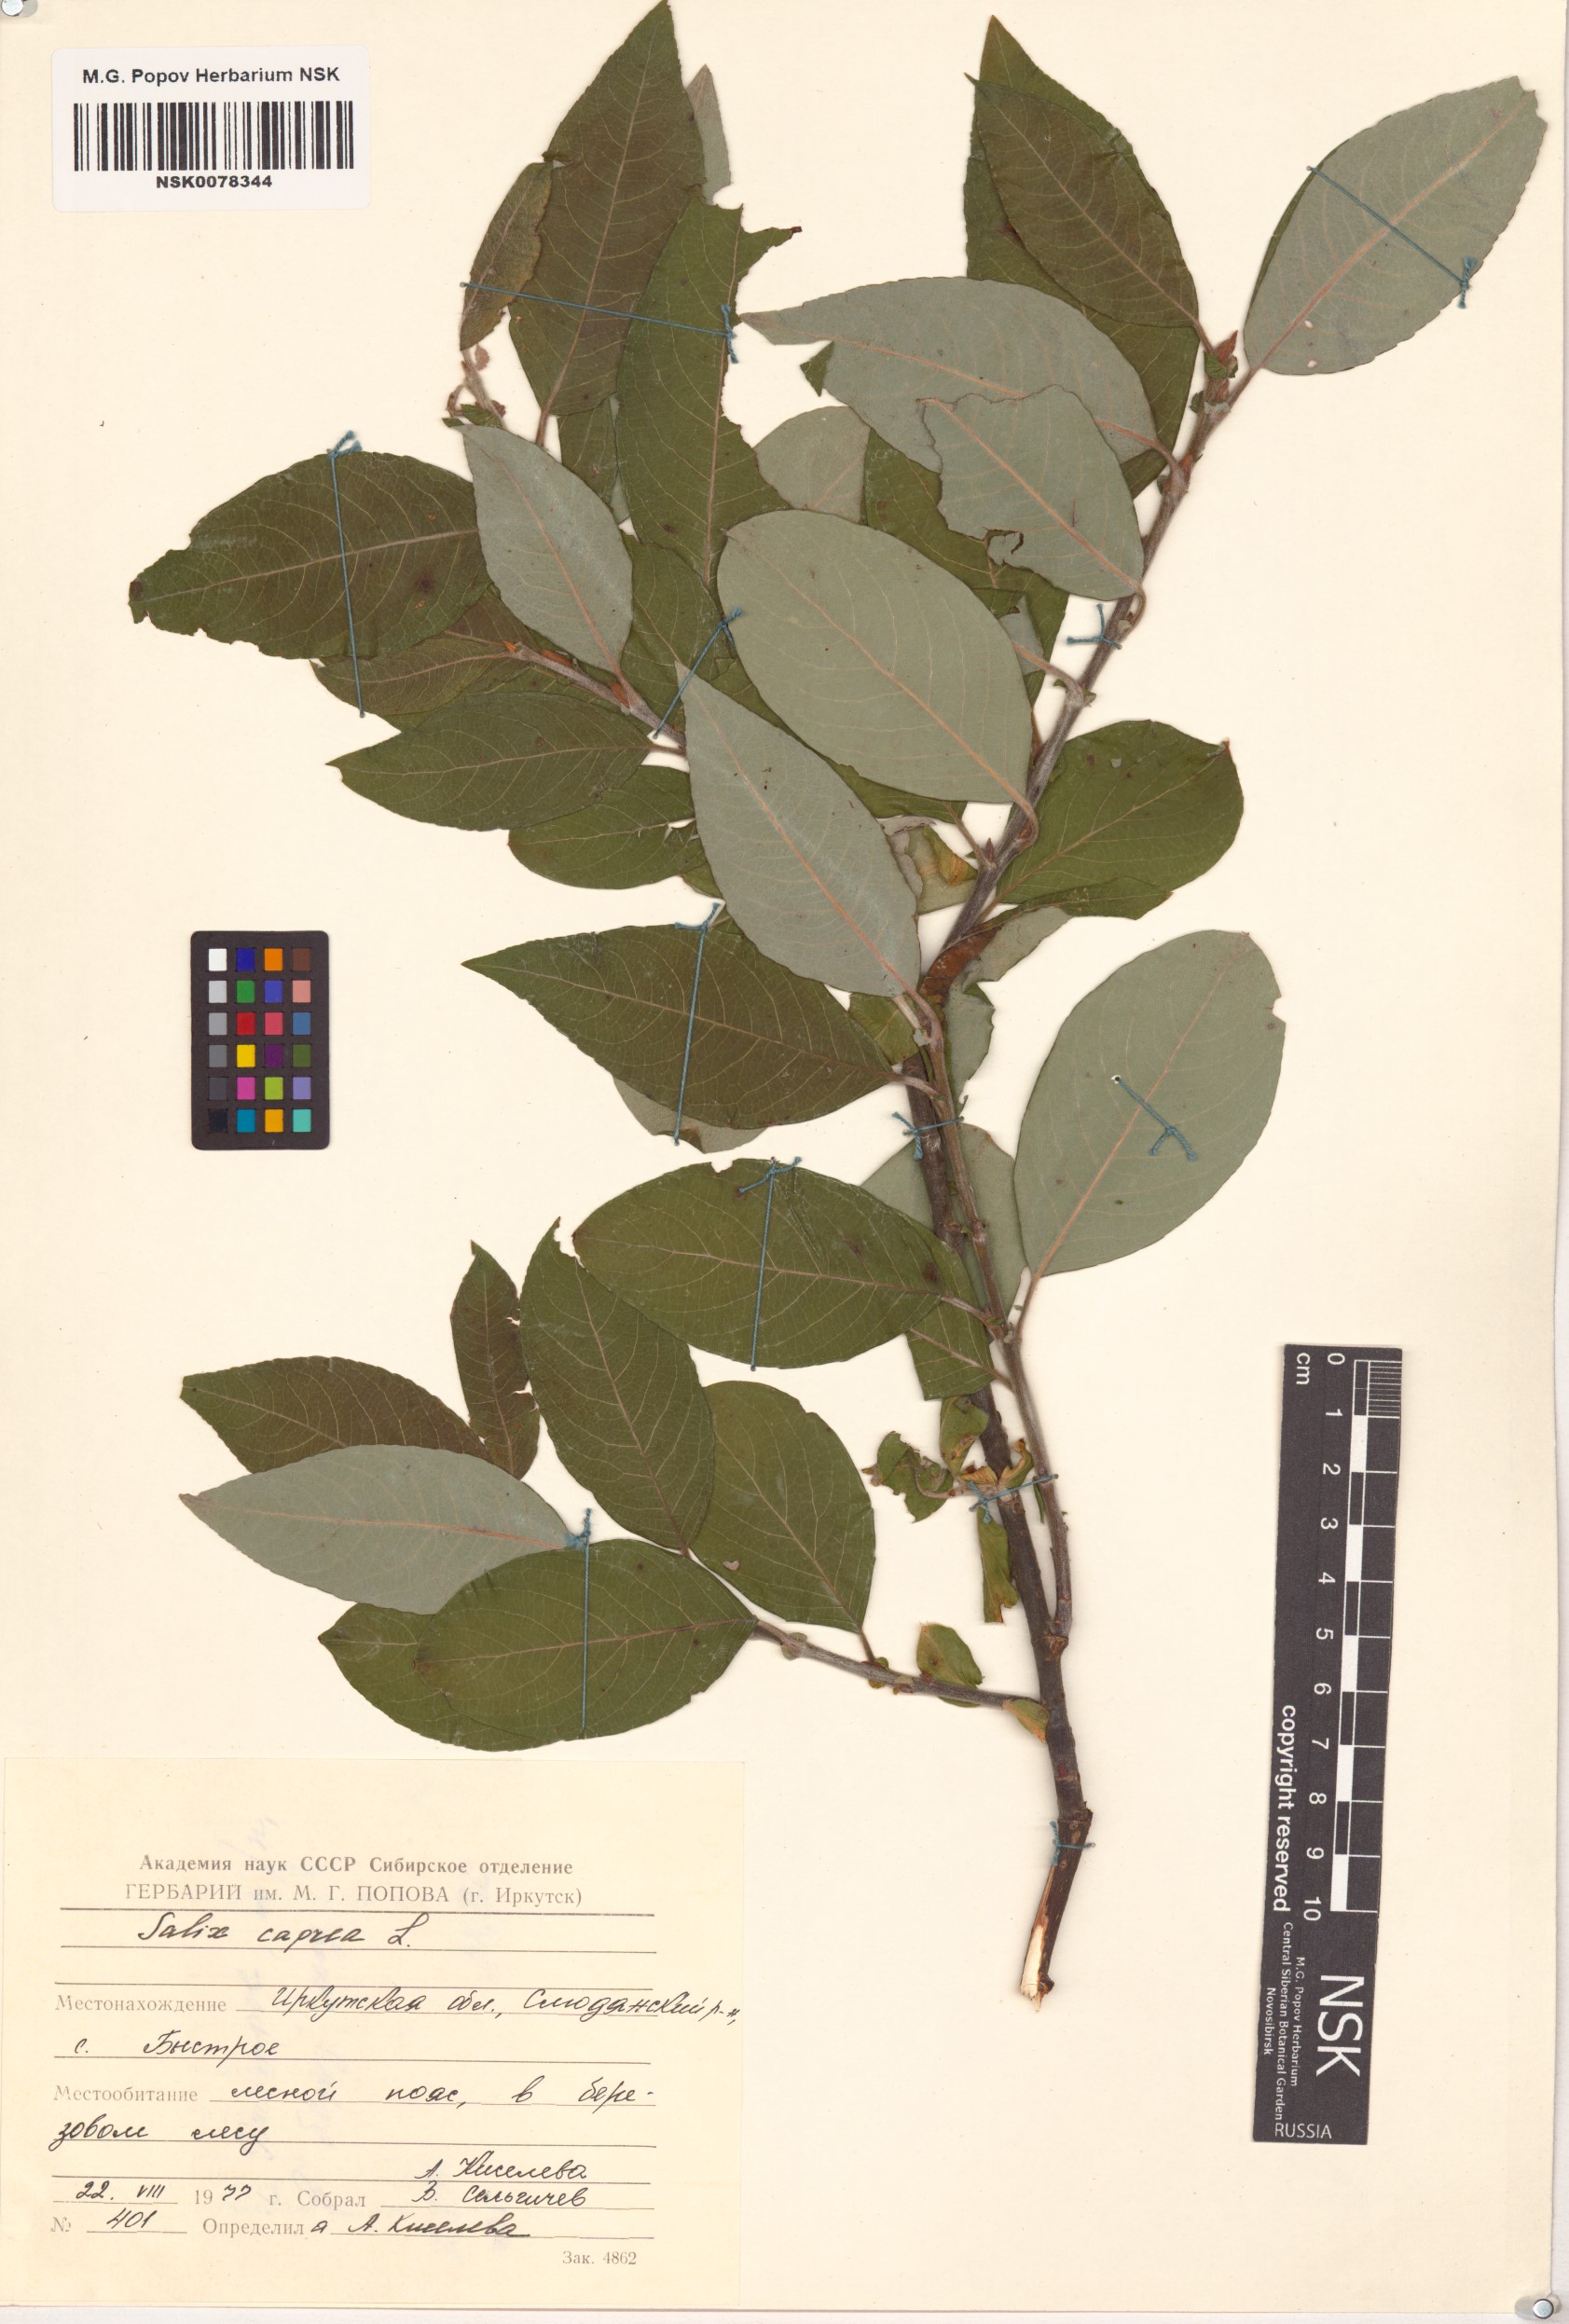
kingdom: Plantae
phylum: Tracheophyta
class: Magnoliopsida
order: Malpighiales
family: Salicaceae
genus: Salix
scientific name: Salix caprea
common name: Goat willow
